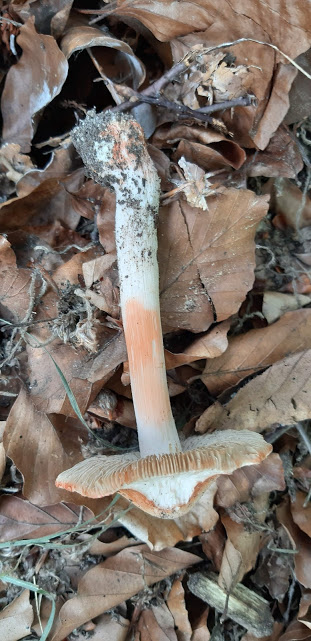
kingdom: Fungi
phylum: Basidiomycota
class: Agaricomycetes
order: Agaricales
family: Inocybaceae
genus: Inosperma
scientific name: Inosperma erubescens
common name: giftig trævlhat
